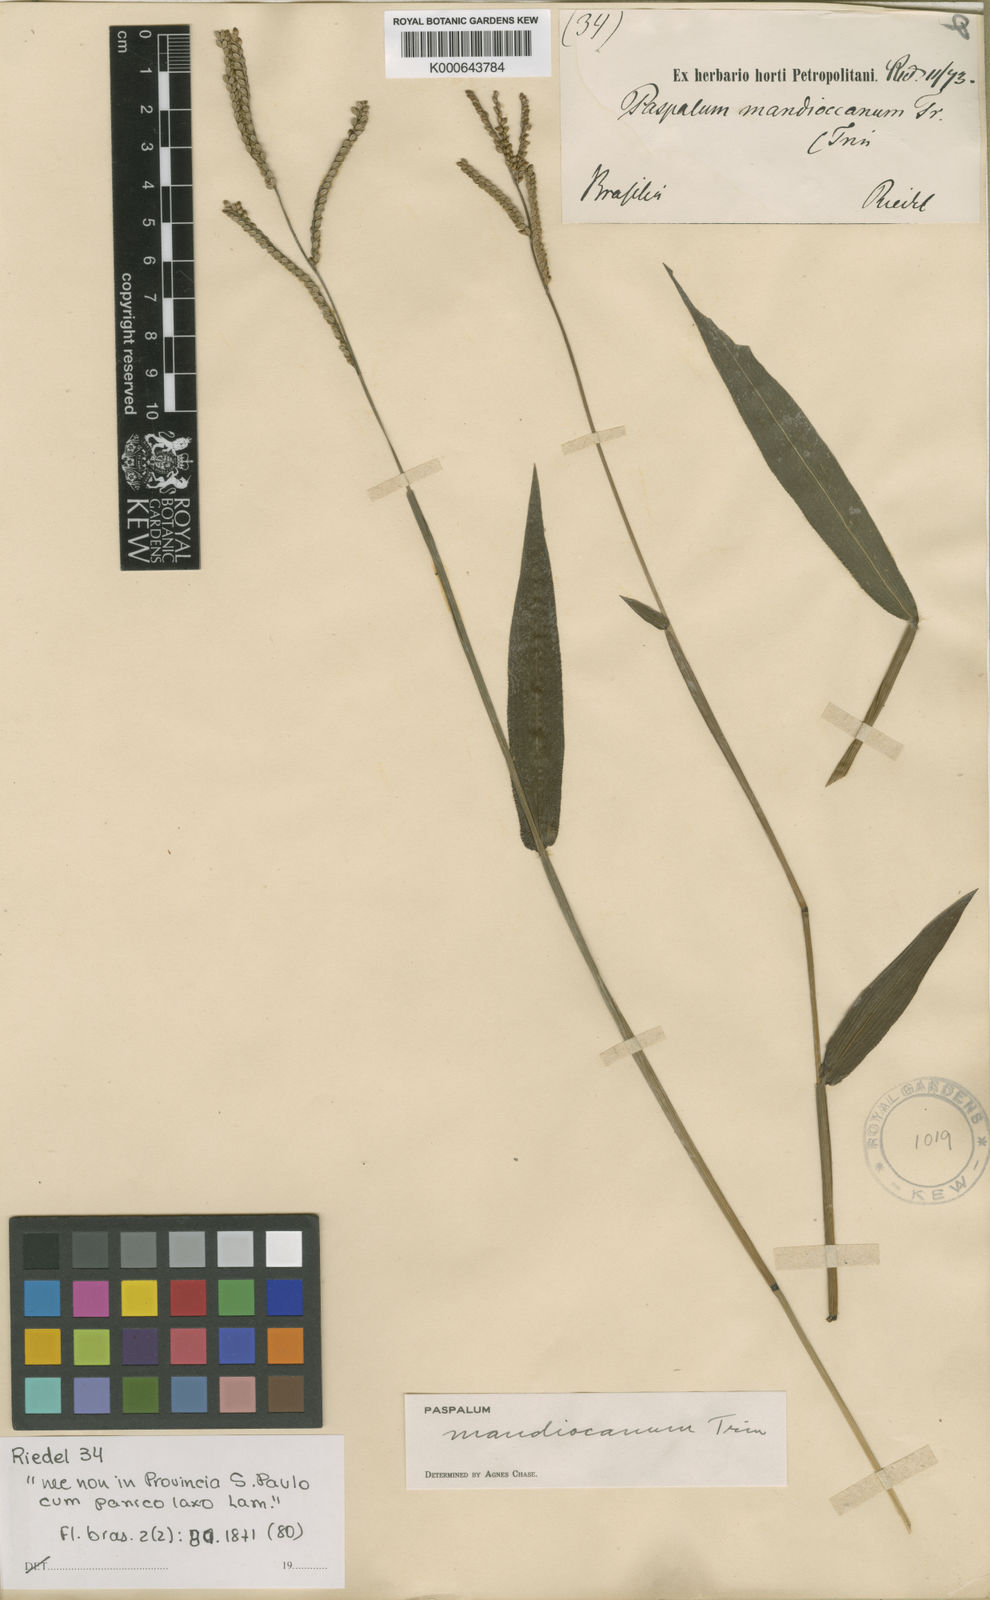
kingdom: Plantae
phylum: Tracheophyta
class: Liliopsida
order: Poales
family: Poaceae
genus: Paspalum
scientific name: Paspalum mandiocanum
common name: Paspalum
